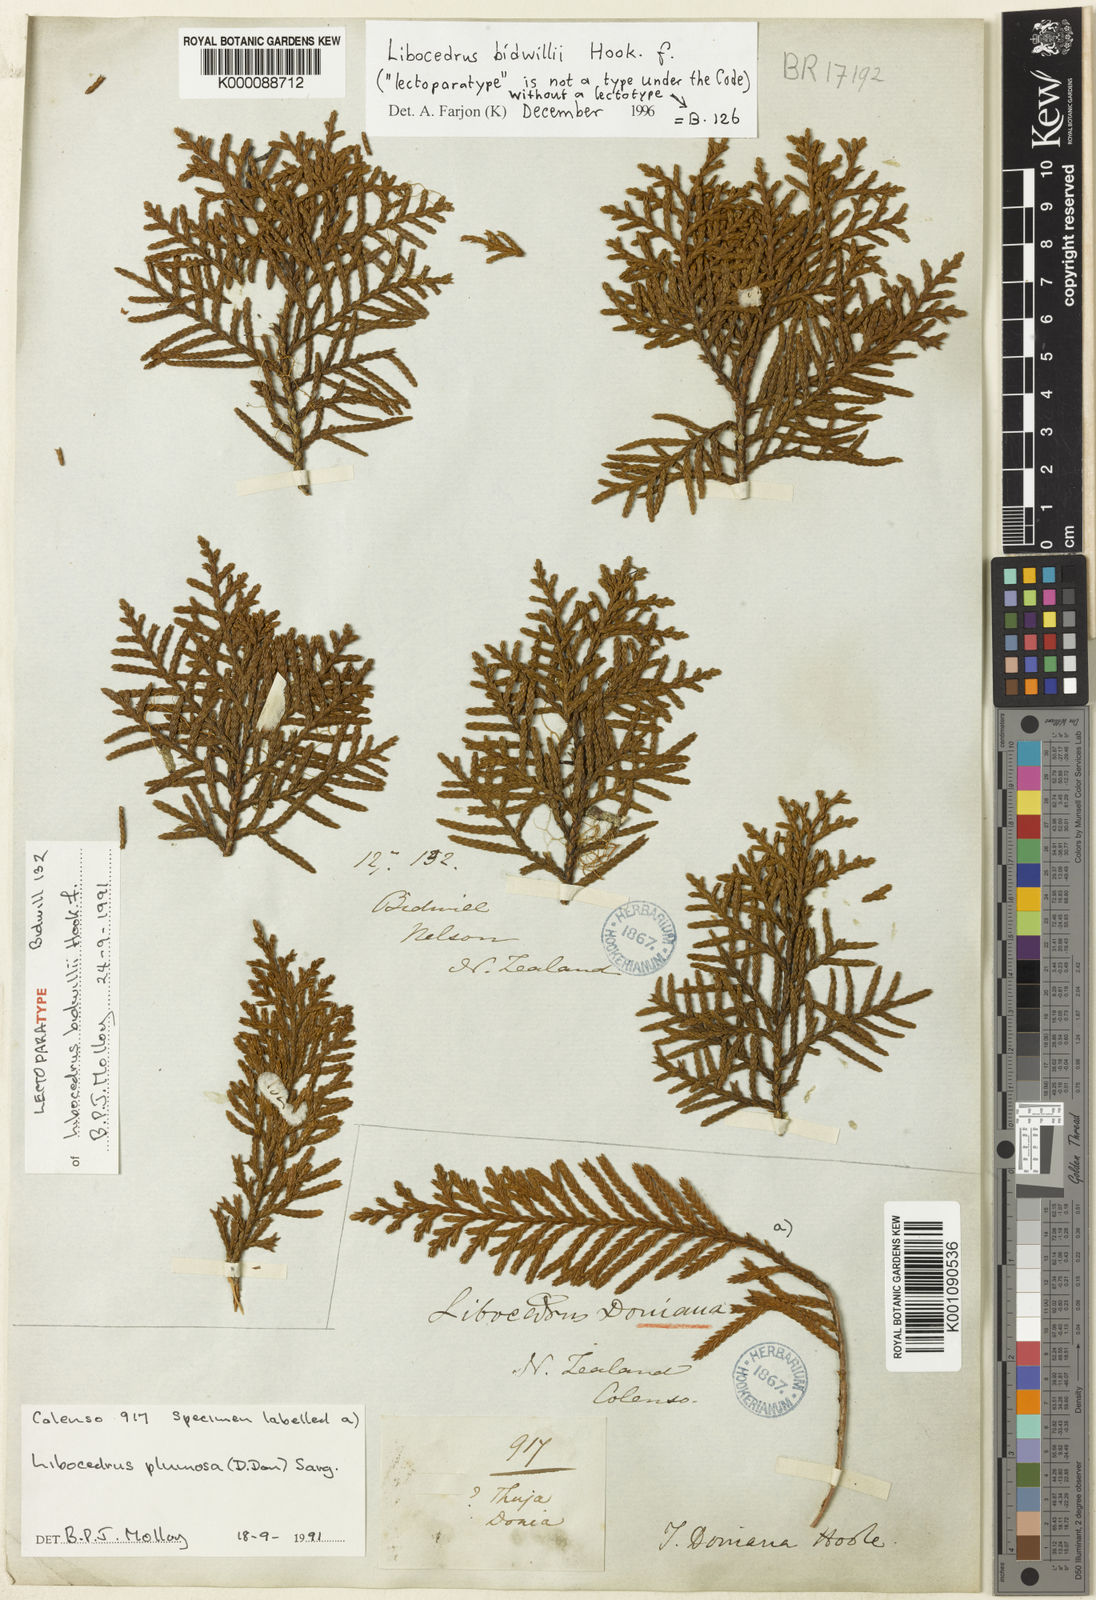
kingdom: Plantae
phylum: Tracheophyta
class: Pinopsida
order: Pinales
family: Cupressaceae
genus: Libocedrus
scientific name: Libocedrus bidwillii
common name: Cedar
